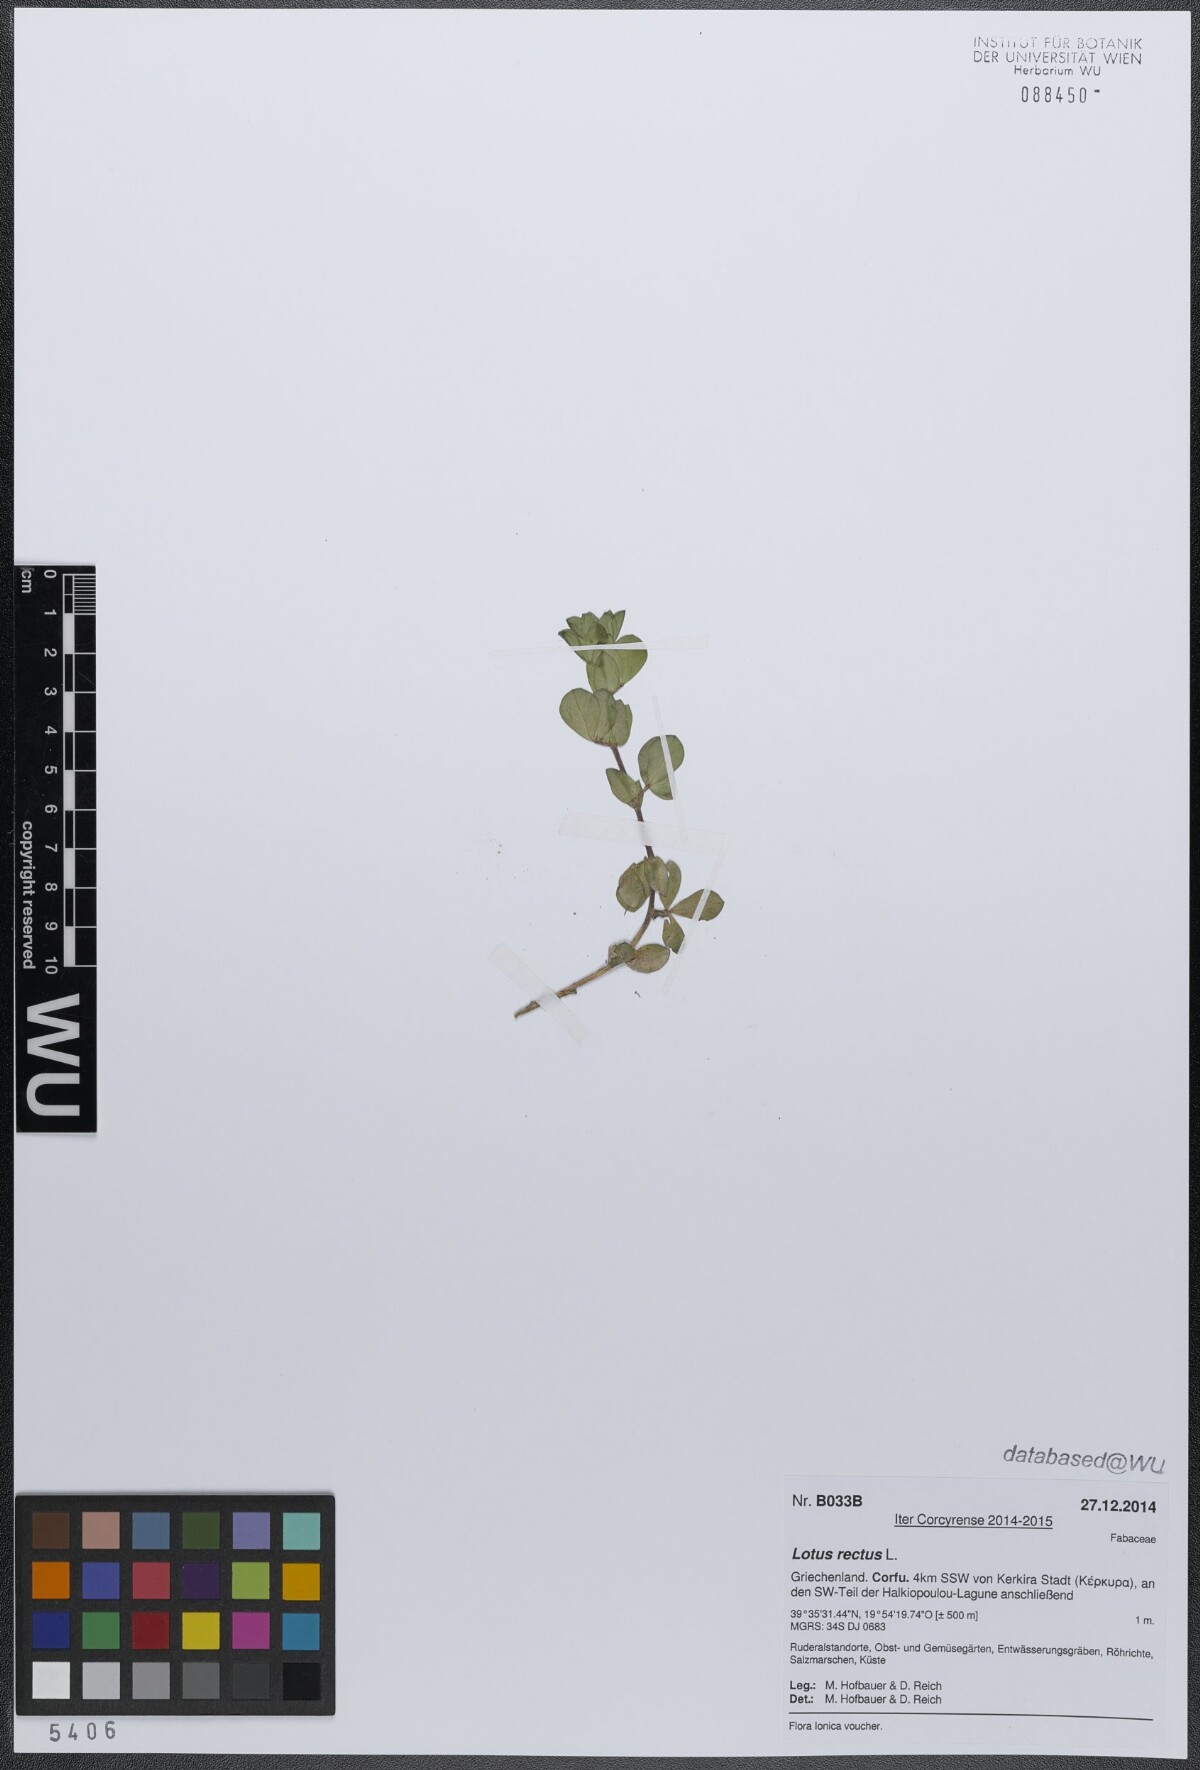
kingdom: Plantae
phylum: Tracheophyta
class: Magnoliopsida
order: Fabales
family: Fabaceae
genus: Lotus
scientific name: Lotus rectus
